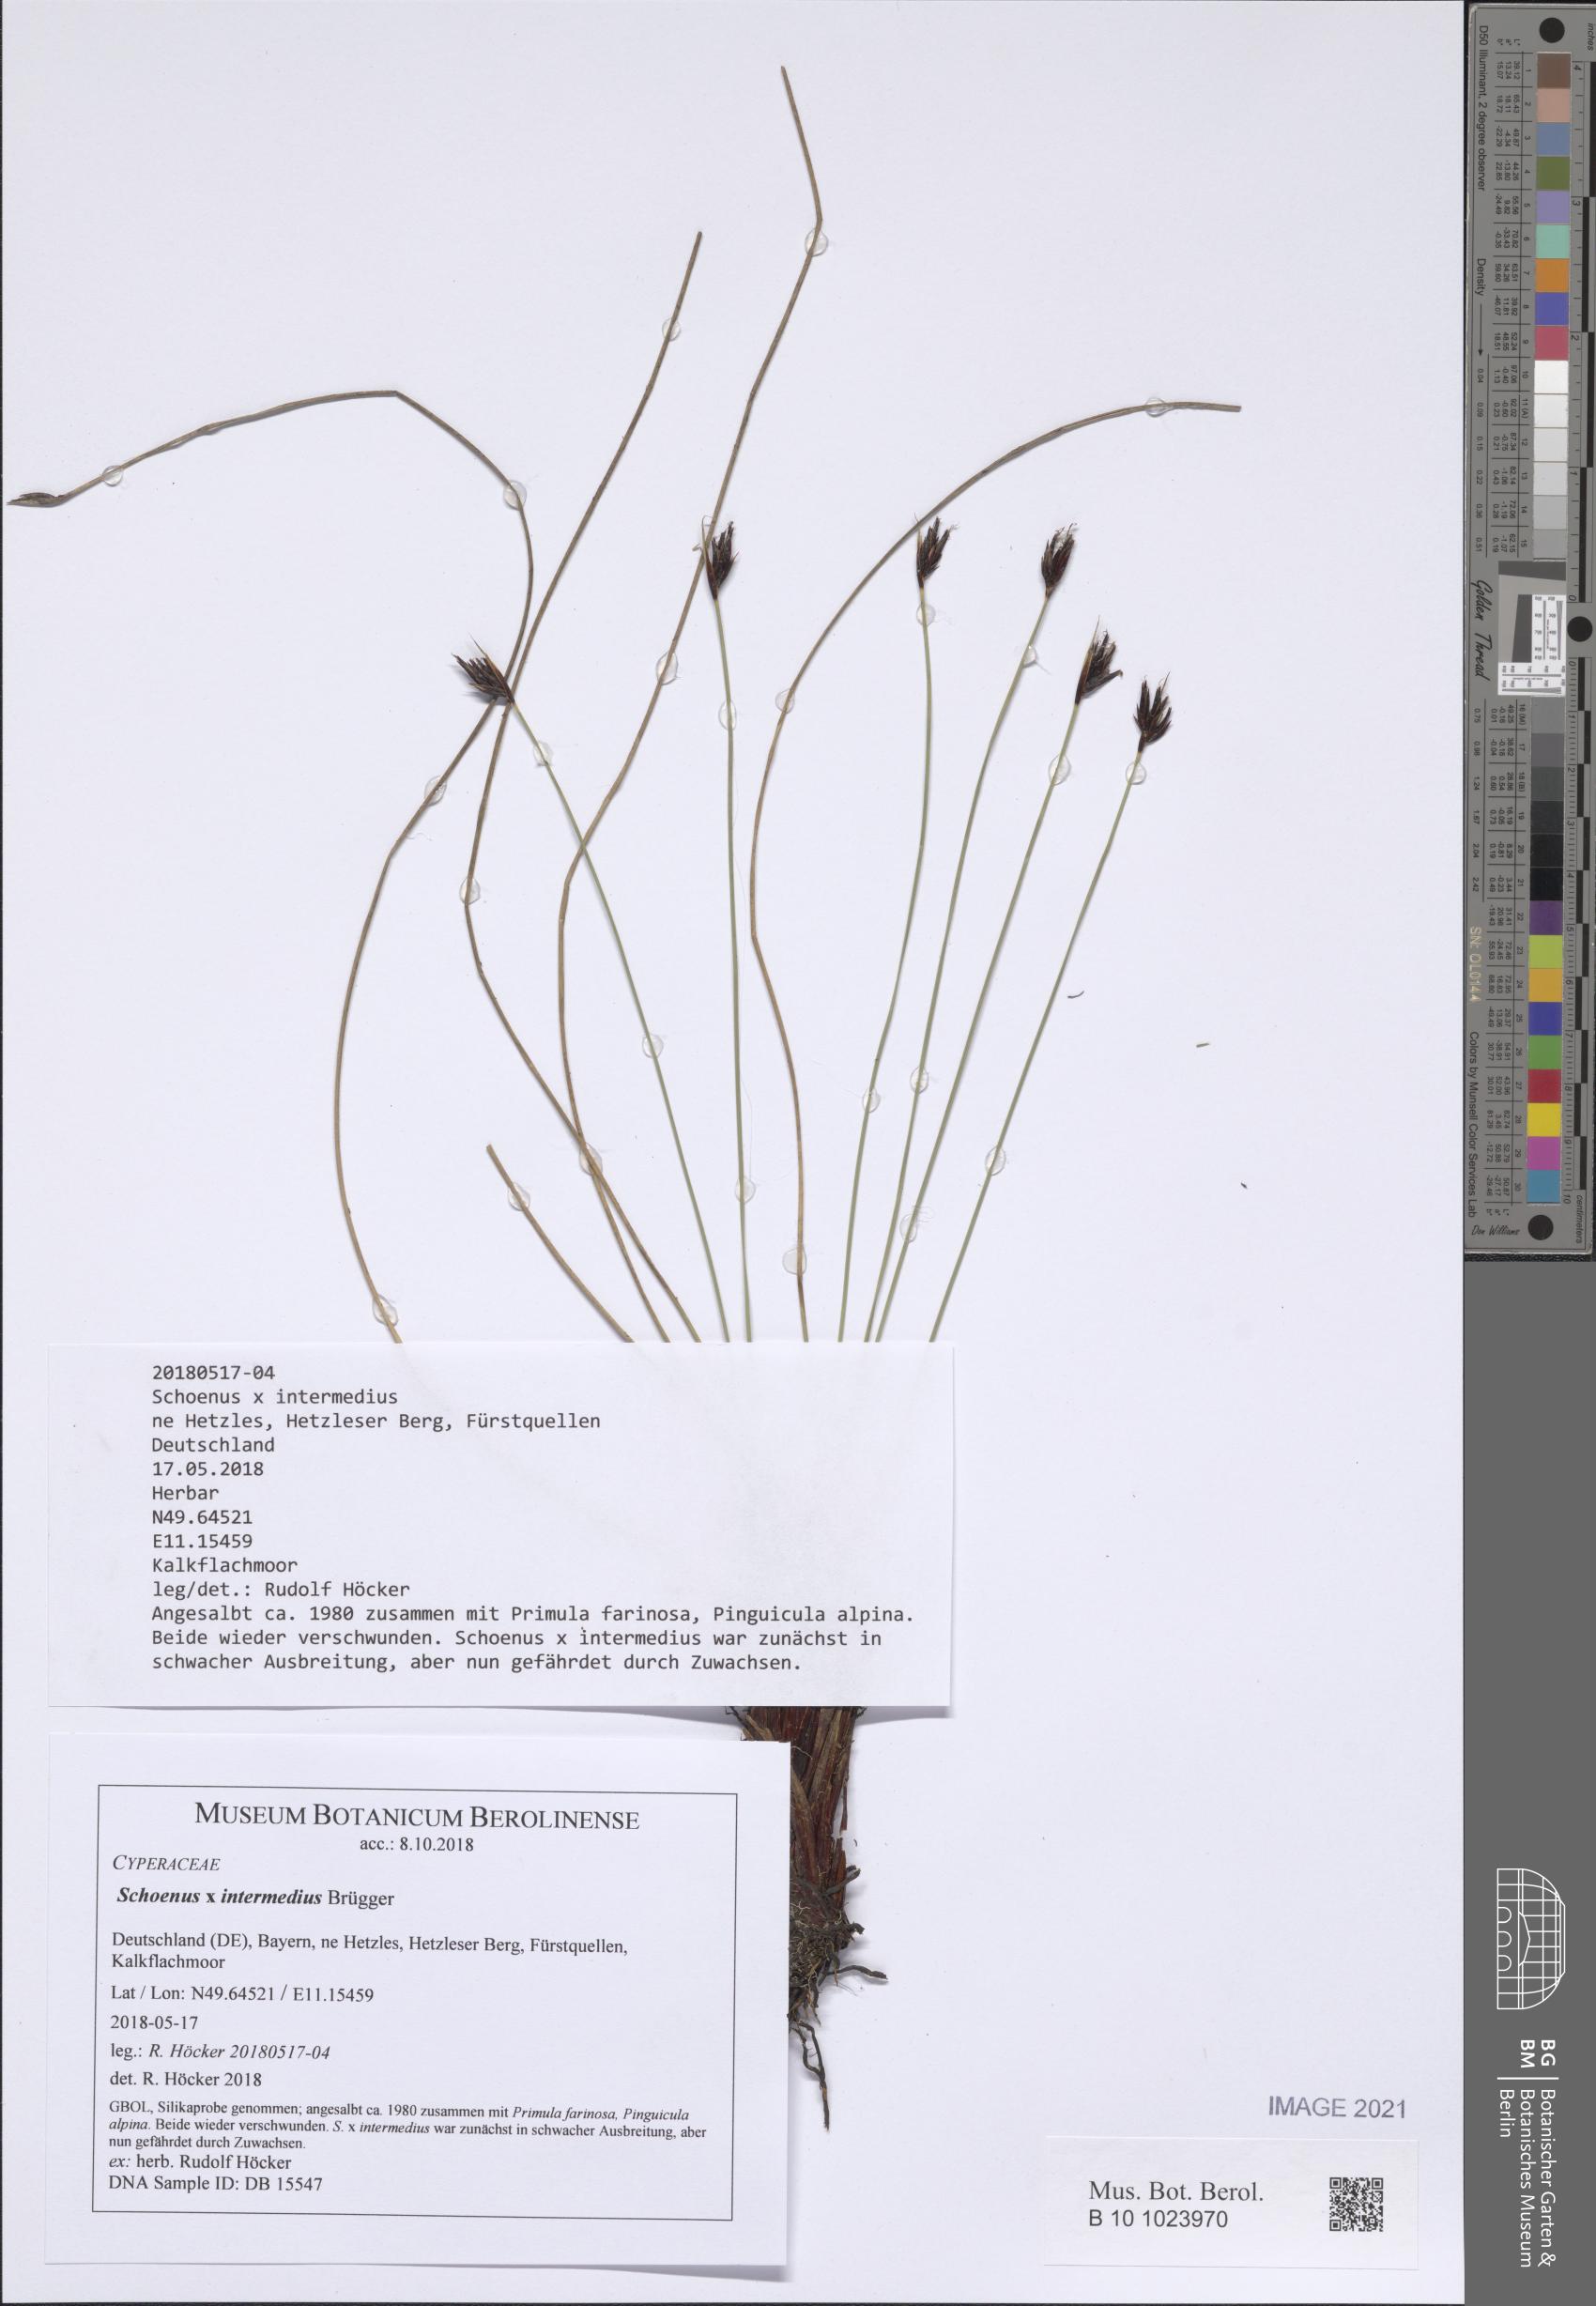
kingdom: Plantae
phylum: Tracheophyta
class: Liliopsida
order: Poales
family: Cyperaceae
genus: Schoenus
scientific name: Schoenus scheuchzeri
